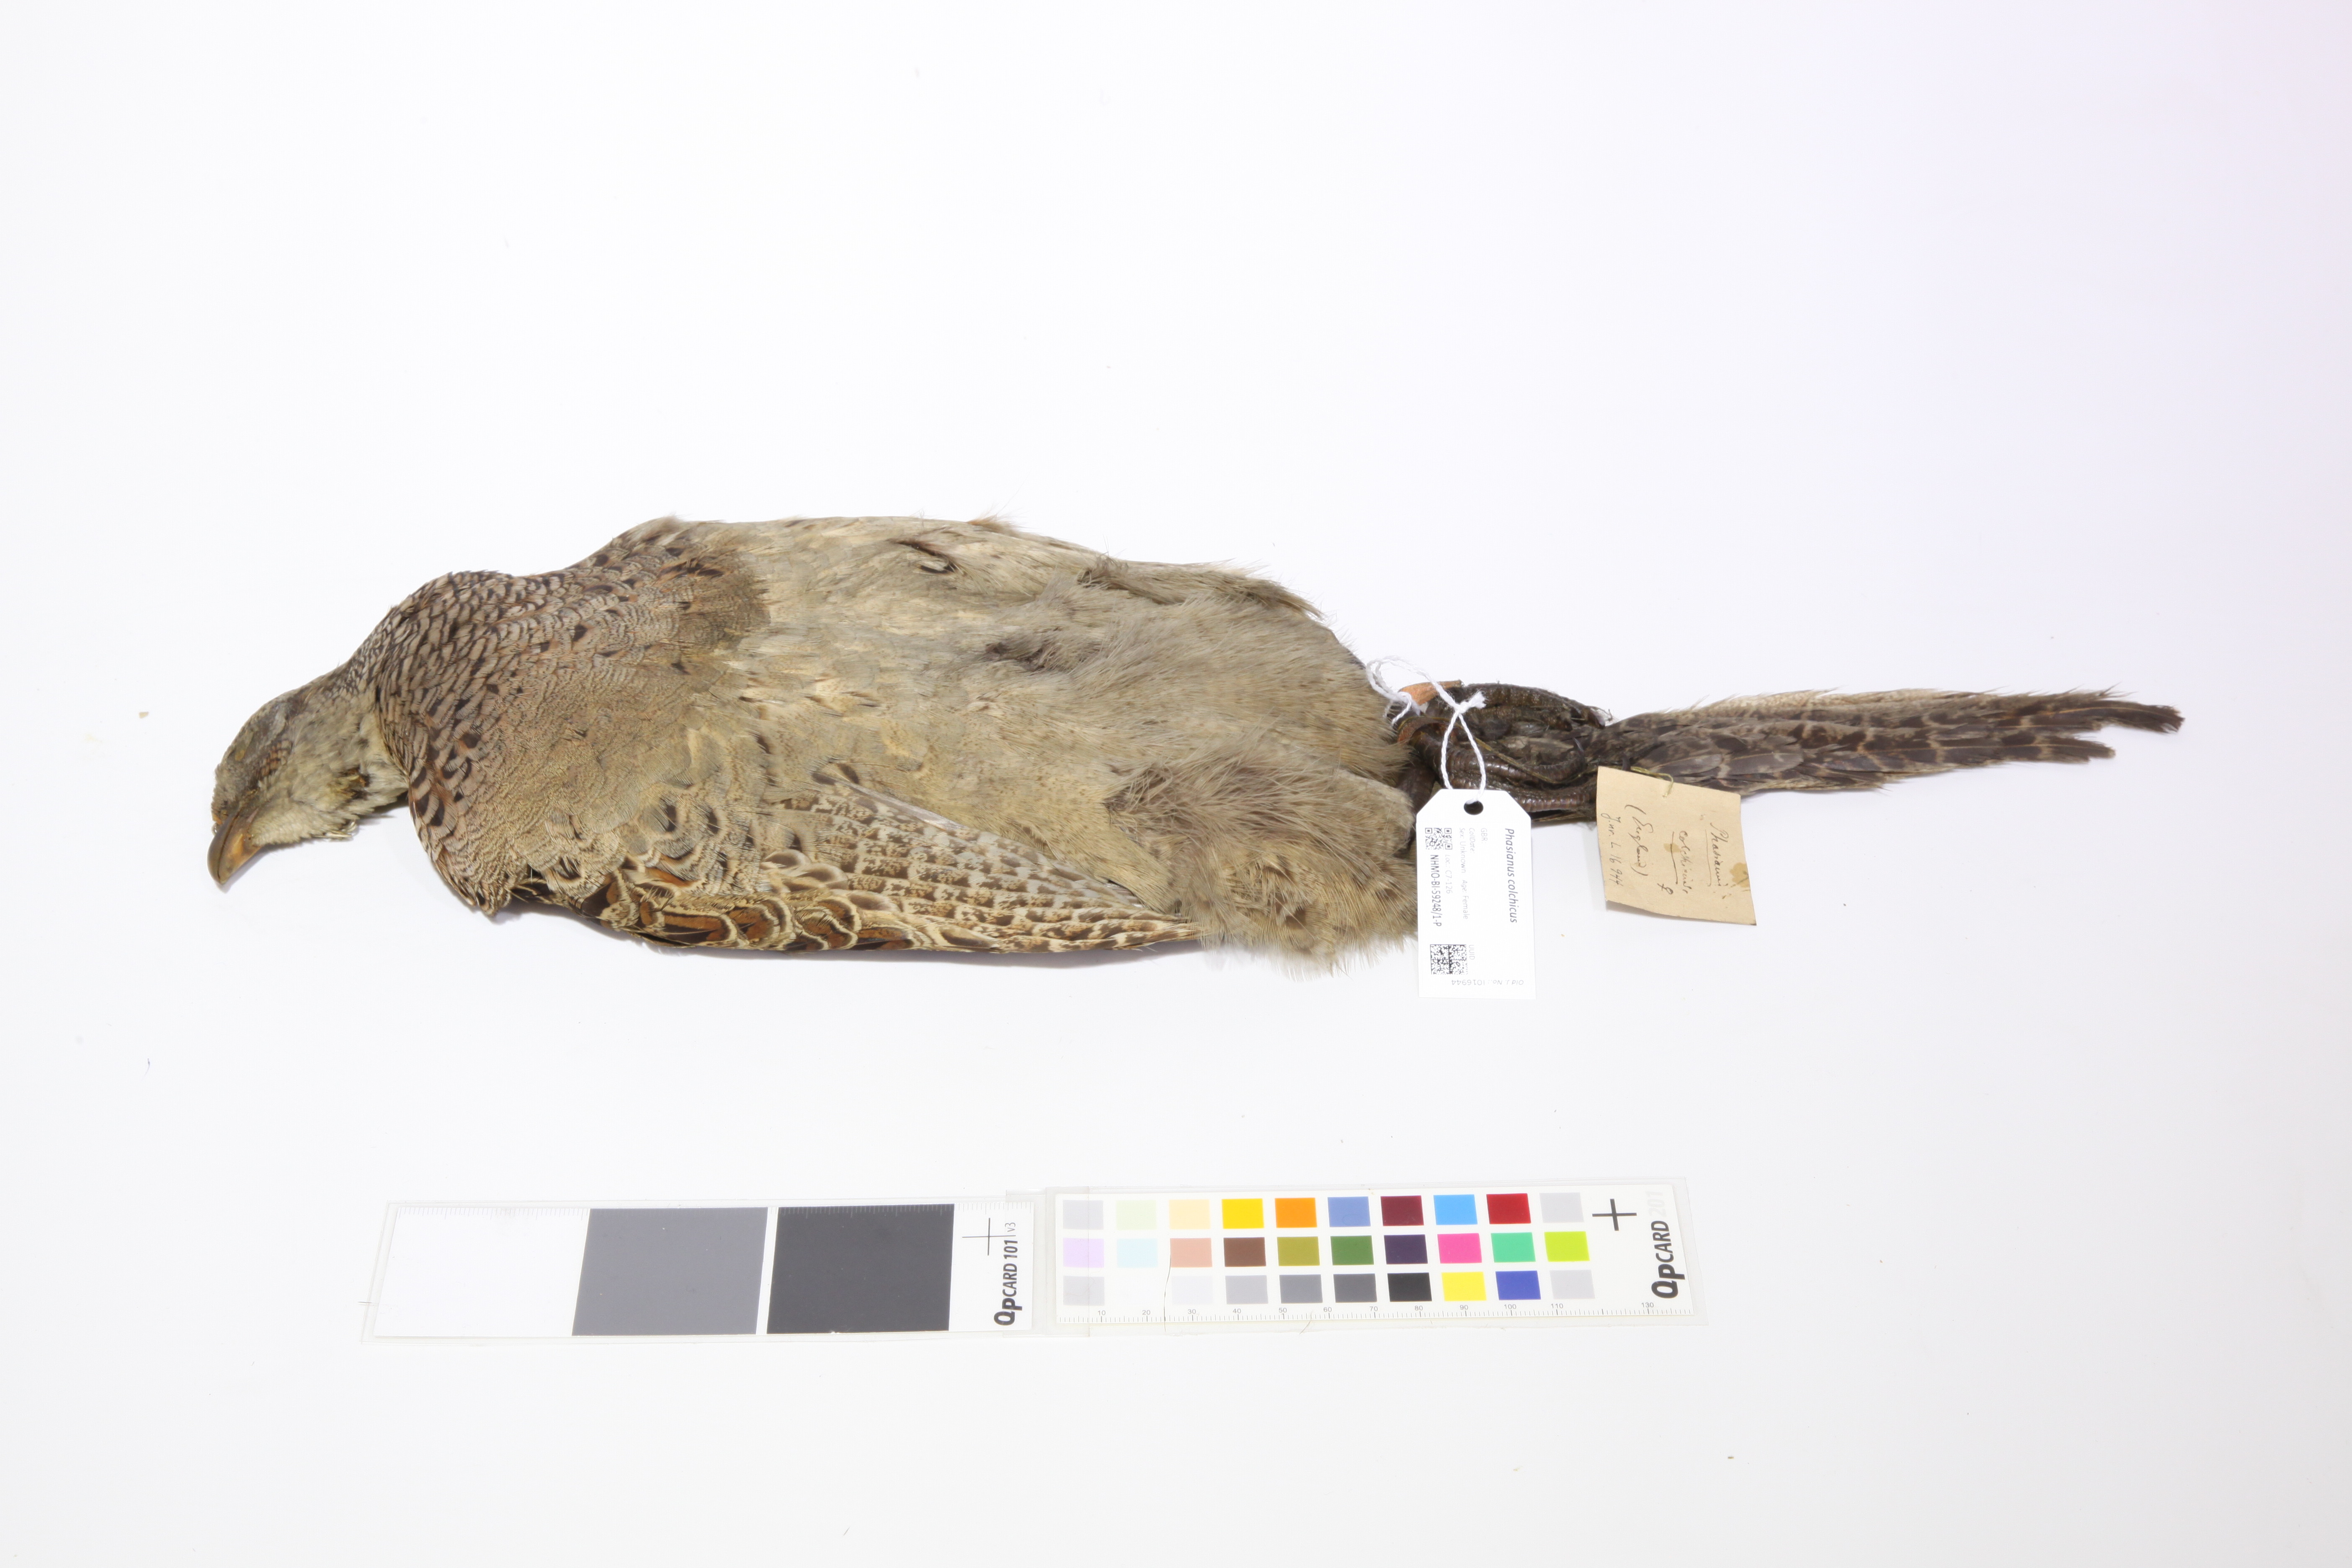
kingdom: Animalia
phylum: Chordata
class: Aves
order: Galliformes
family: Phasianidae
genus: Phasianus
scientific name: Phasianus colchicus
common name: Common pheasant
